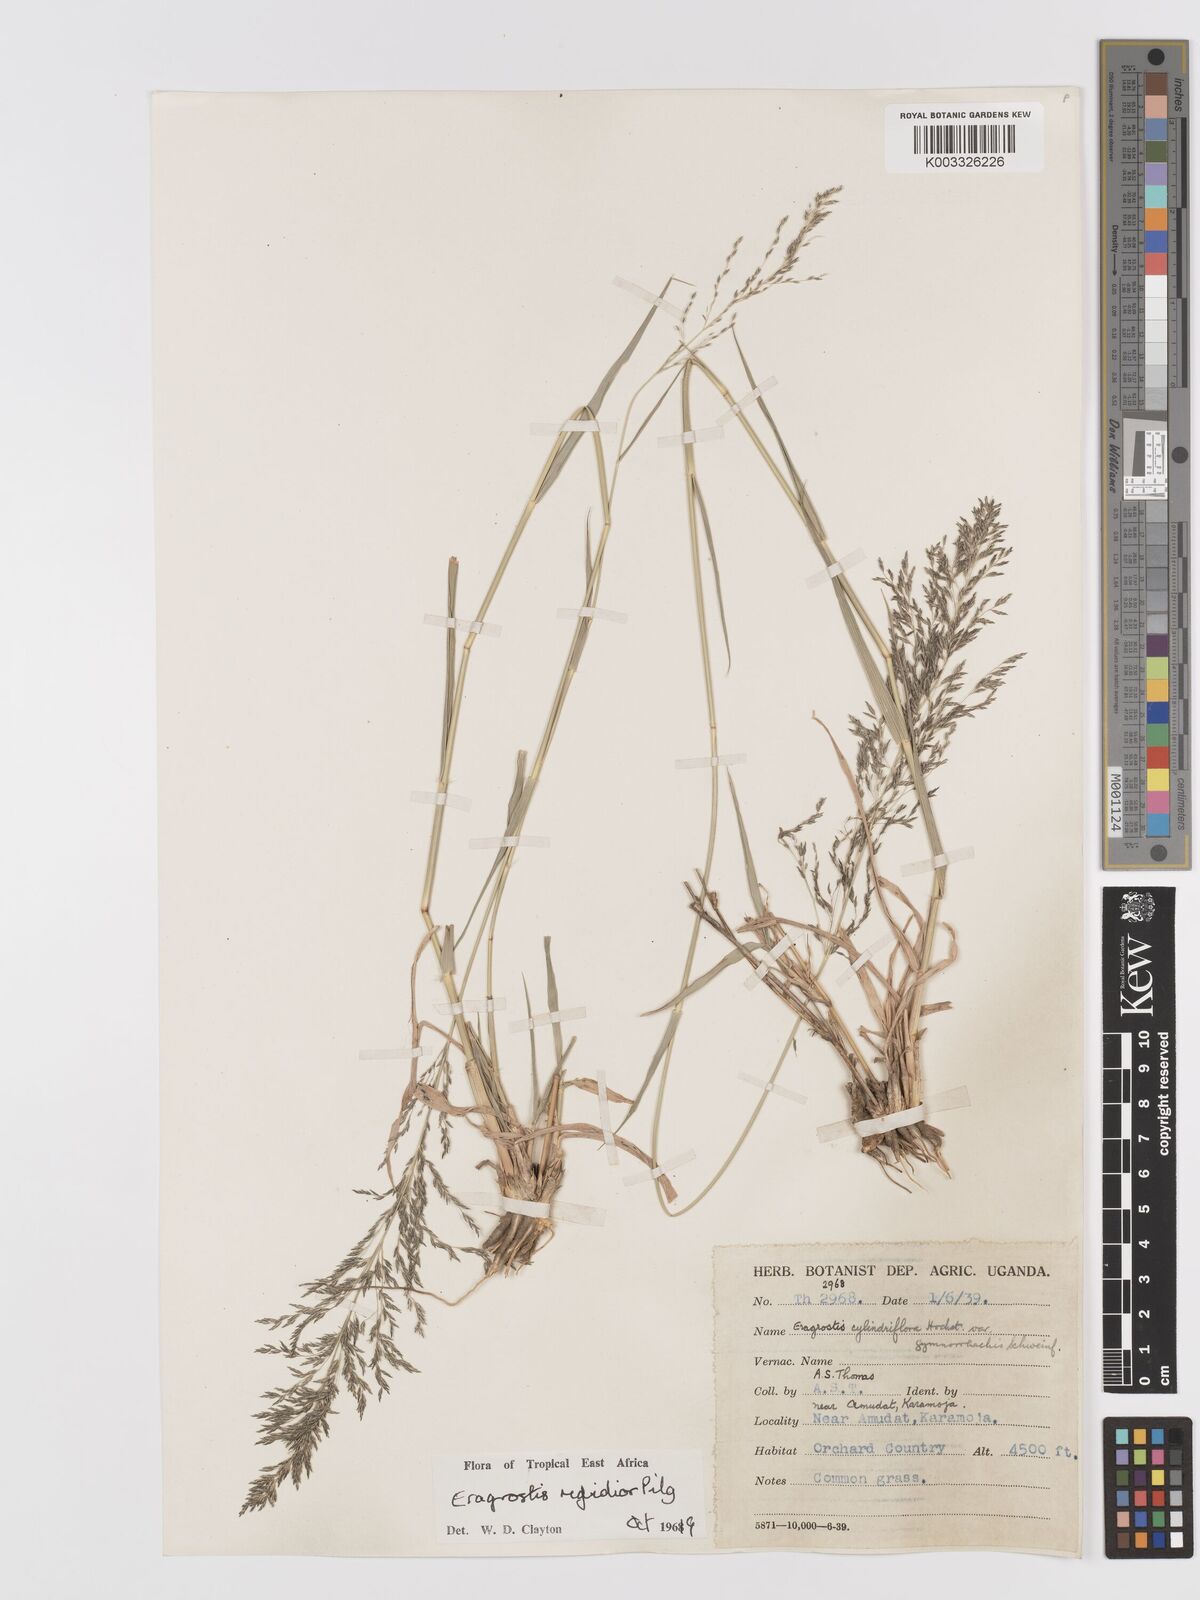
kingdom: Plantae
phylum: Tracheophyta
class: Liliopsida
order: Poales
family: Poaceae
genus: Eragrostis
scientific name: Eragrostis cylindriflora
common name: Cylinderflower lovegrass
